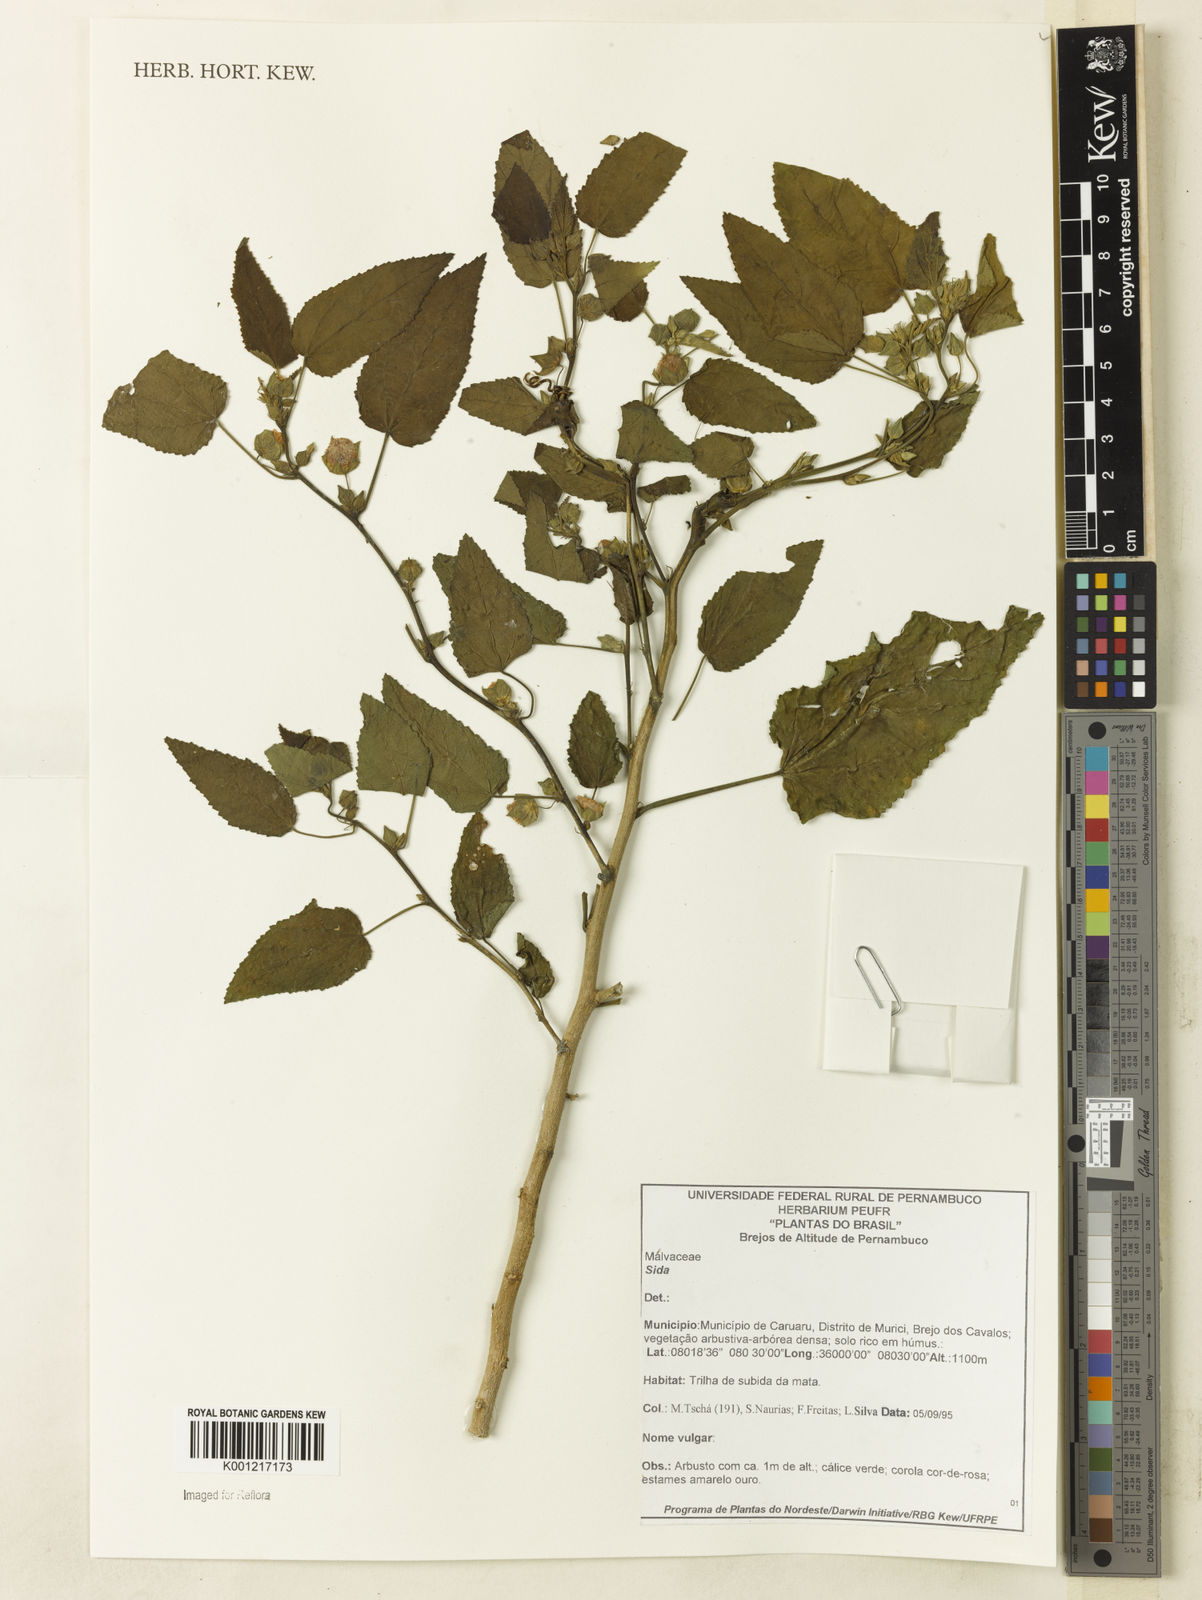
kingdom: Plantae
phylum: Tracheophyta
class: Magnoliopsida
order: Malvales
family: Malvaceae
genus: Sida
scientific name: Sida
